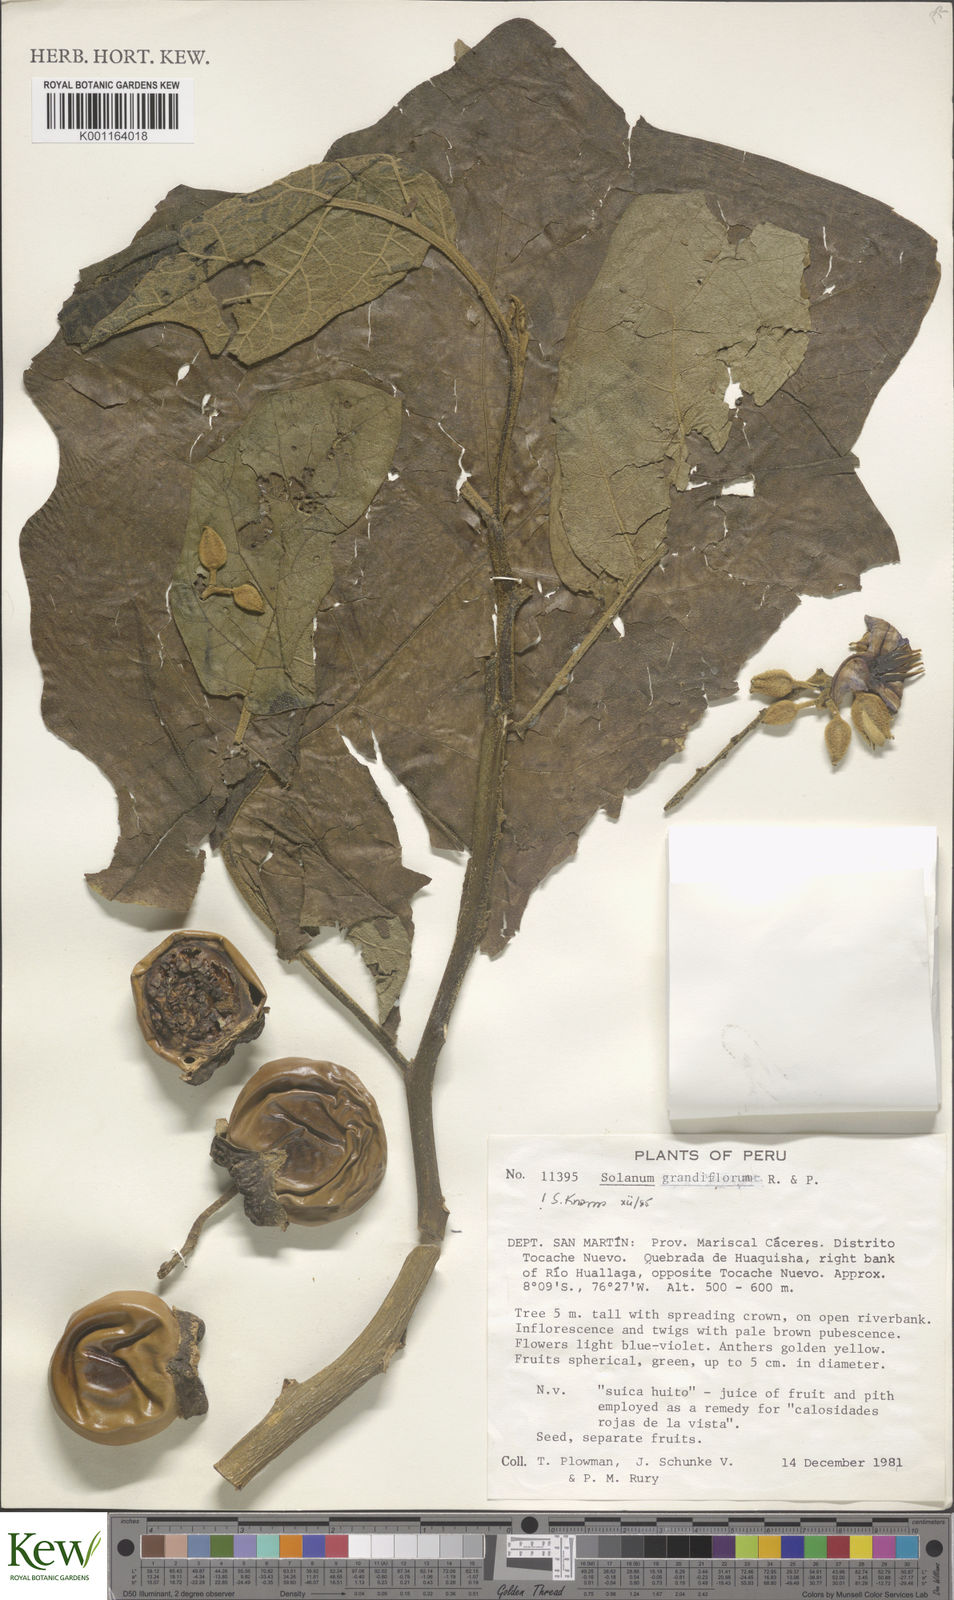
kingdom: Plantae
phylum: Tracheophyta
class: Magnoliopsida
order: Solanales
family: Solanaceae
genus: Solanum
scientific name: Solanum grandiflorum
